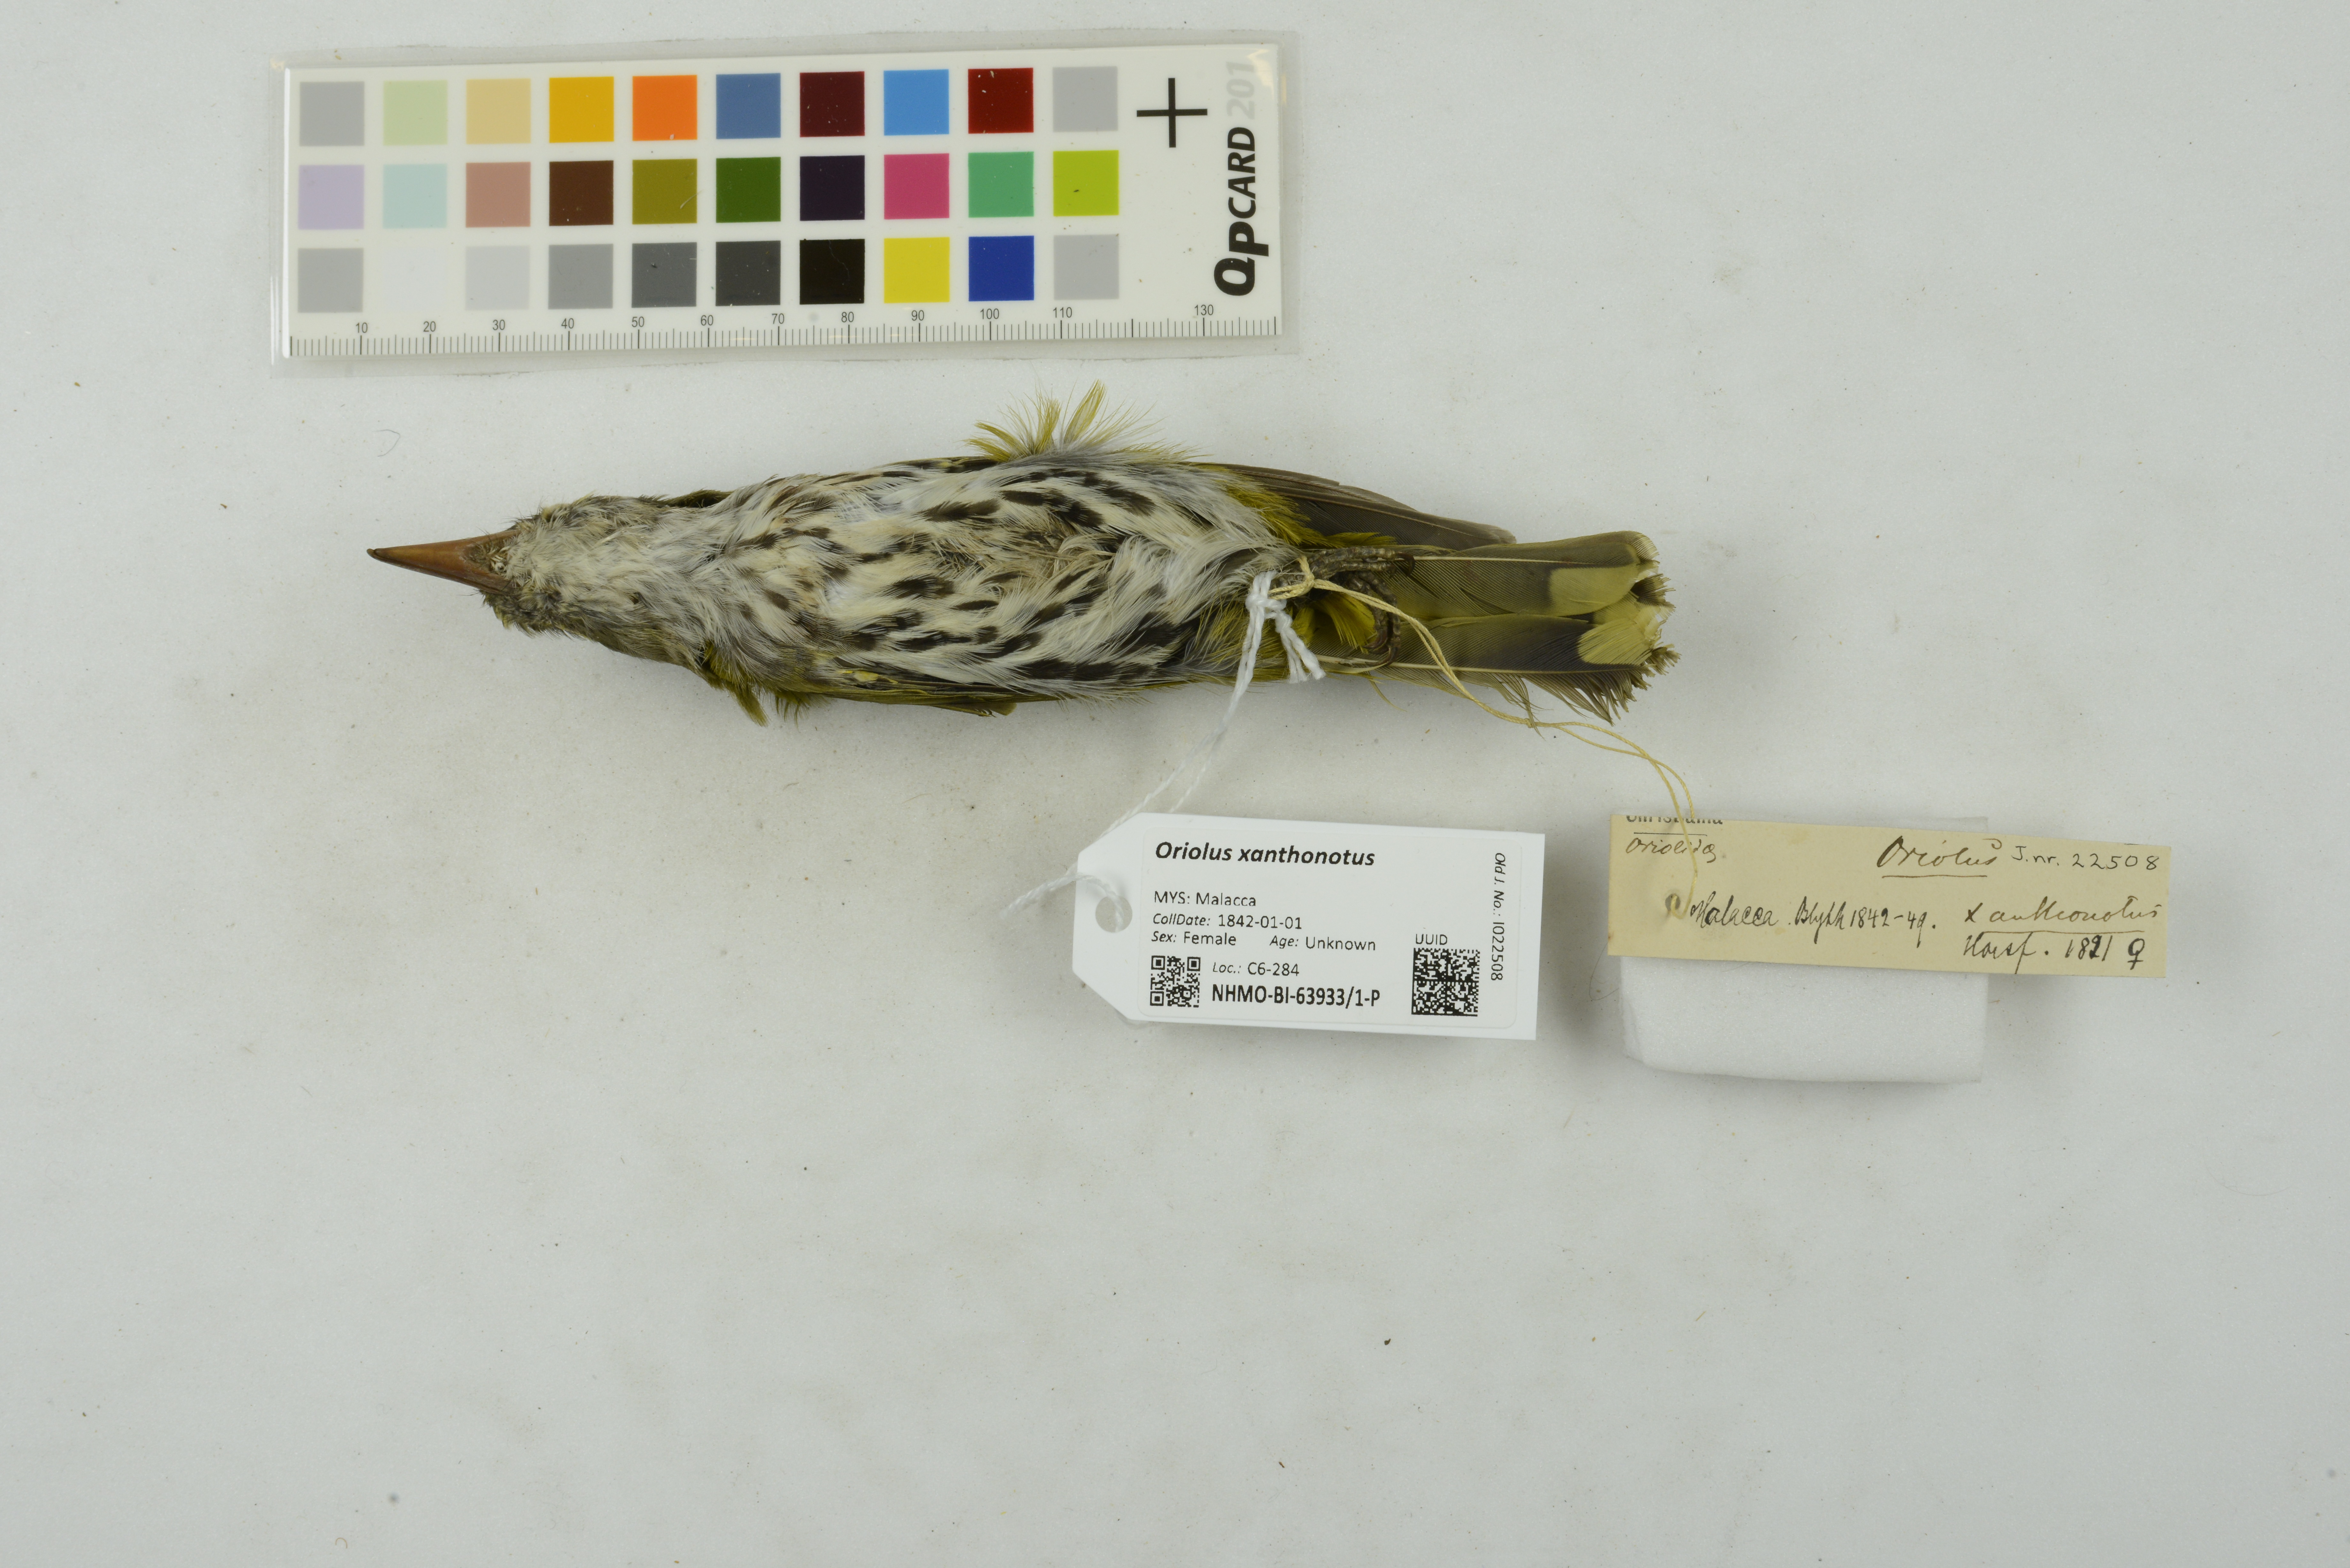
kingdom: Animalia
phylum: Chordata
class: Aves
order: Passeriformes
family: Oriolidae
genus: Oriolus
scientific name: Oriolus xanthonotus
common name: Dark-throated oriole
